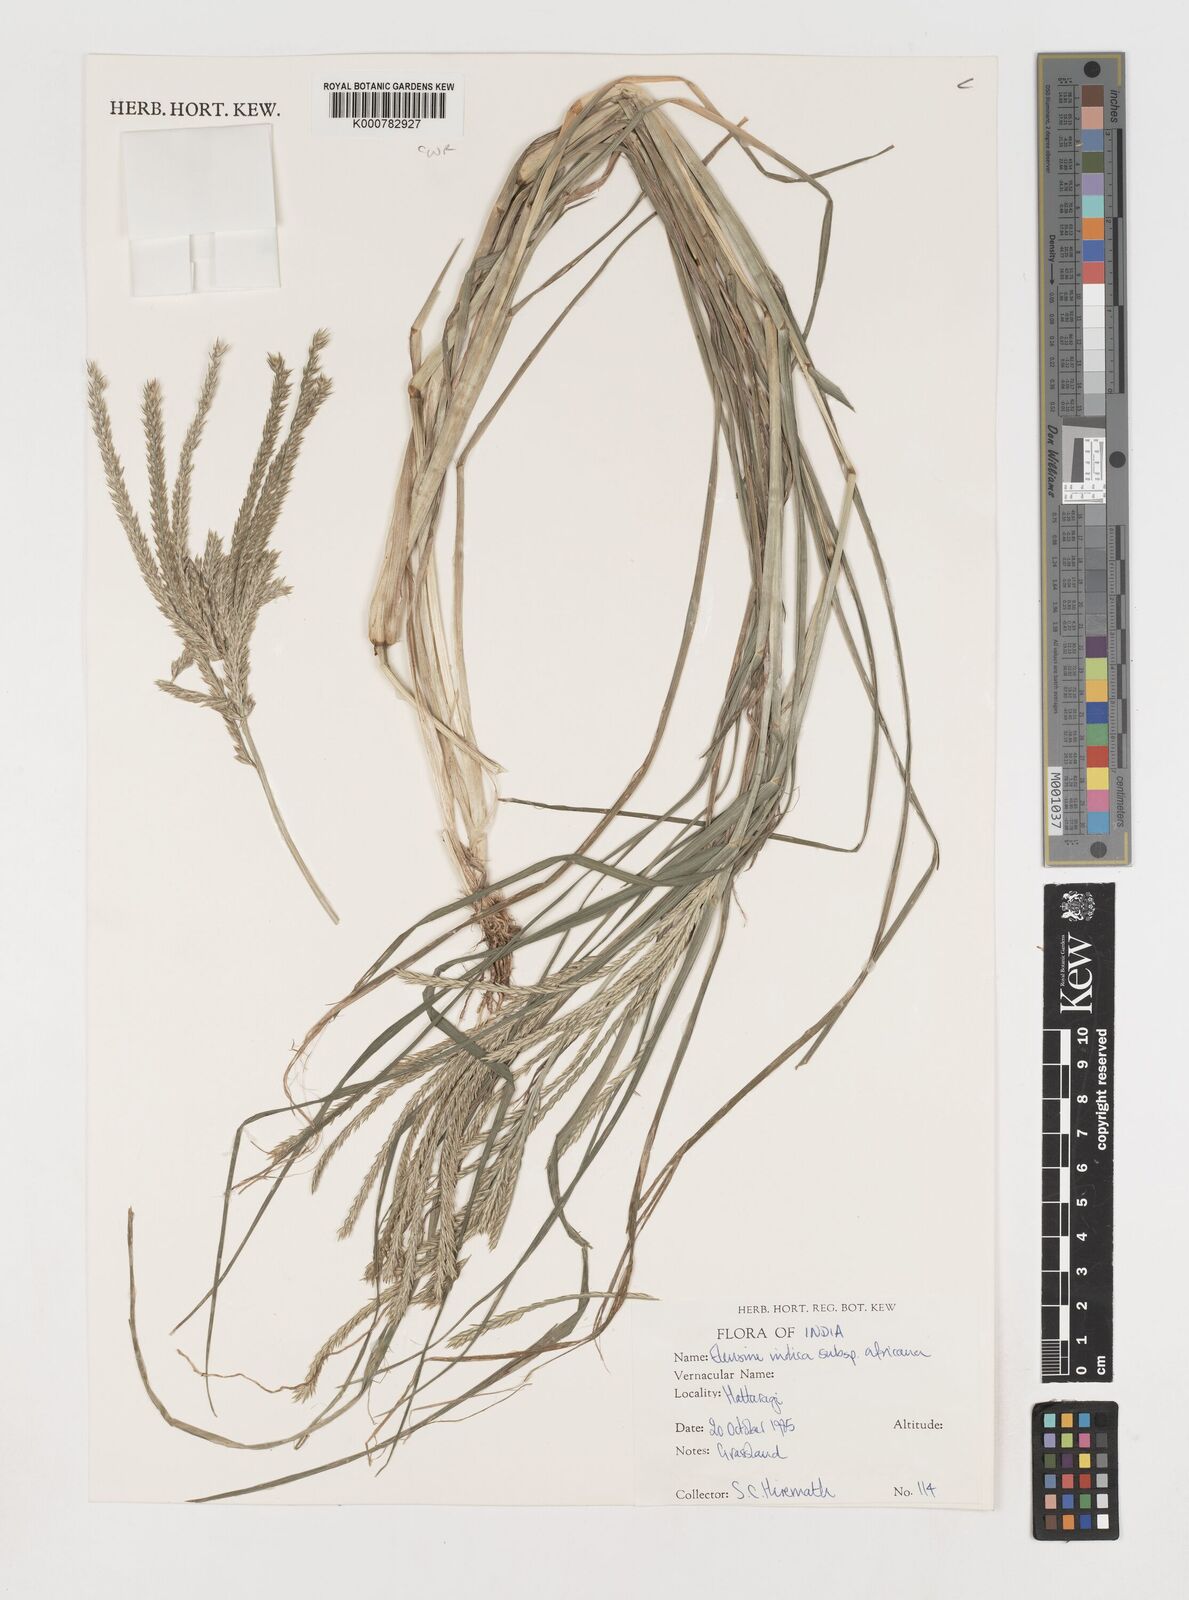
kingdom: Plantae
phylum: Tracheophyta
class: Liliopsida
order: Poales
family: Poaceae
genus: Eleusine
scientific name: Eleusine africana
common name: Wild african finger millet
